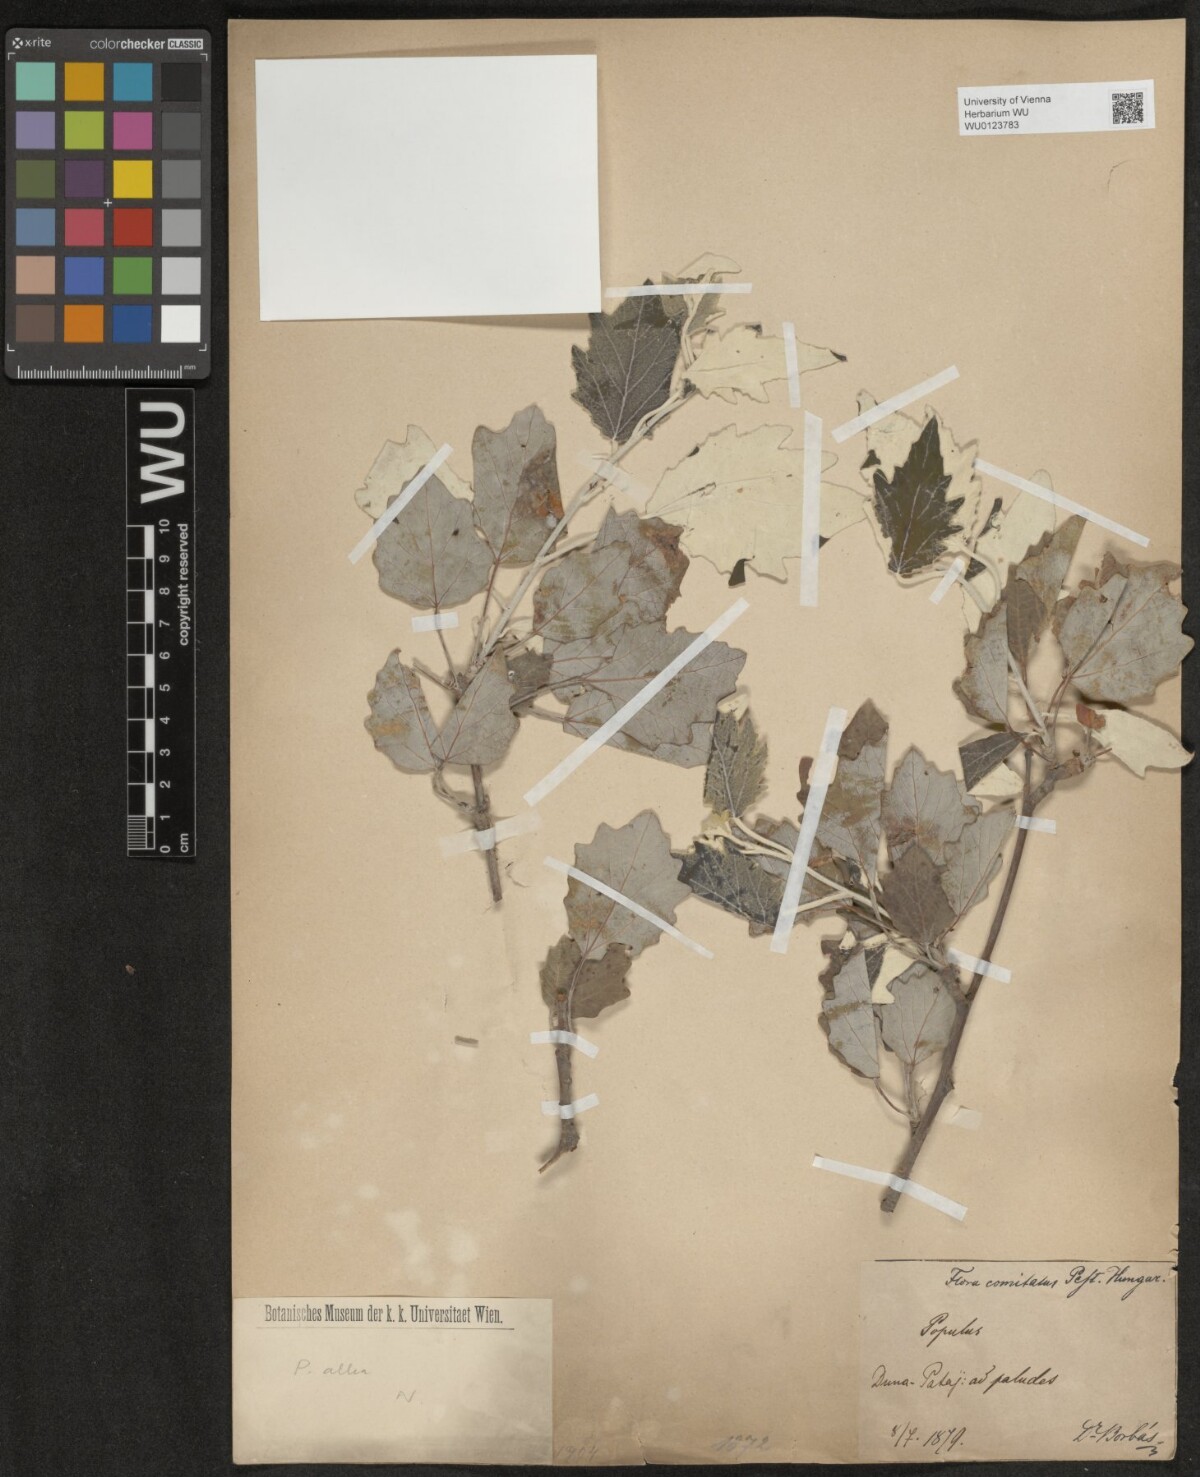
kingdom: Plantae
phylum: Tracheophyta
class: Magnoliopsida
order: Malpighiales
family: Salicaceae
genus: Populus
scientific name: Populus alba
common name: White poplar
